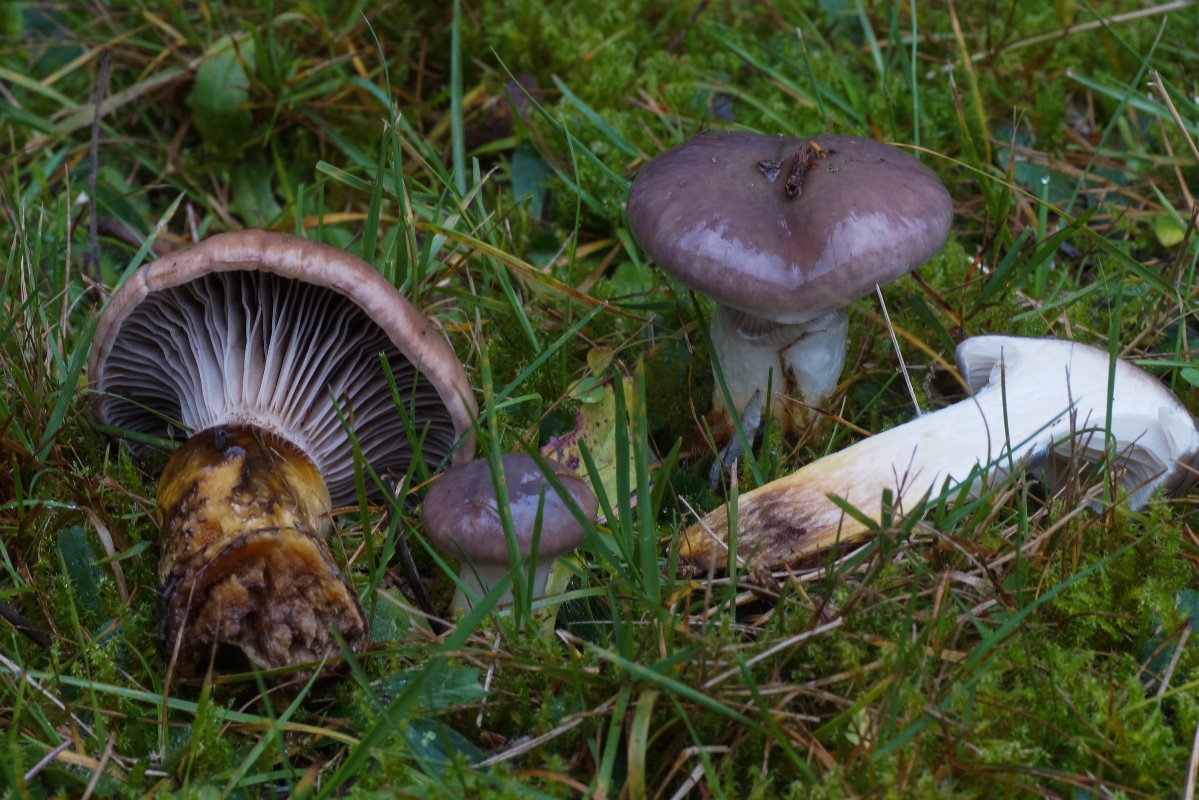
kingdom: Fungi
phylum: Basidiomycota
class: Agaricomycetes
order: Boletales
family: Gomphidiaceae
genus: Gomphidius
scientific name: Gomphidius glutinosus
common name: grå slimslør
